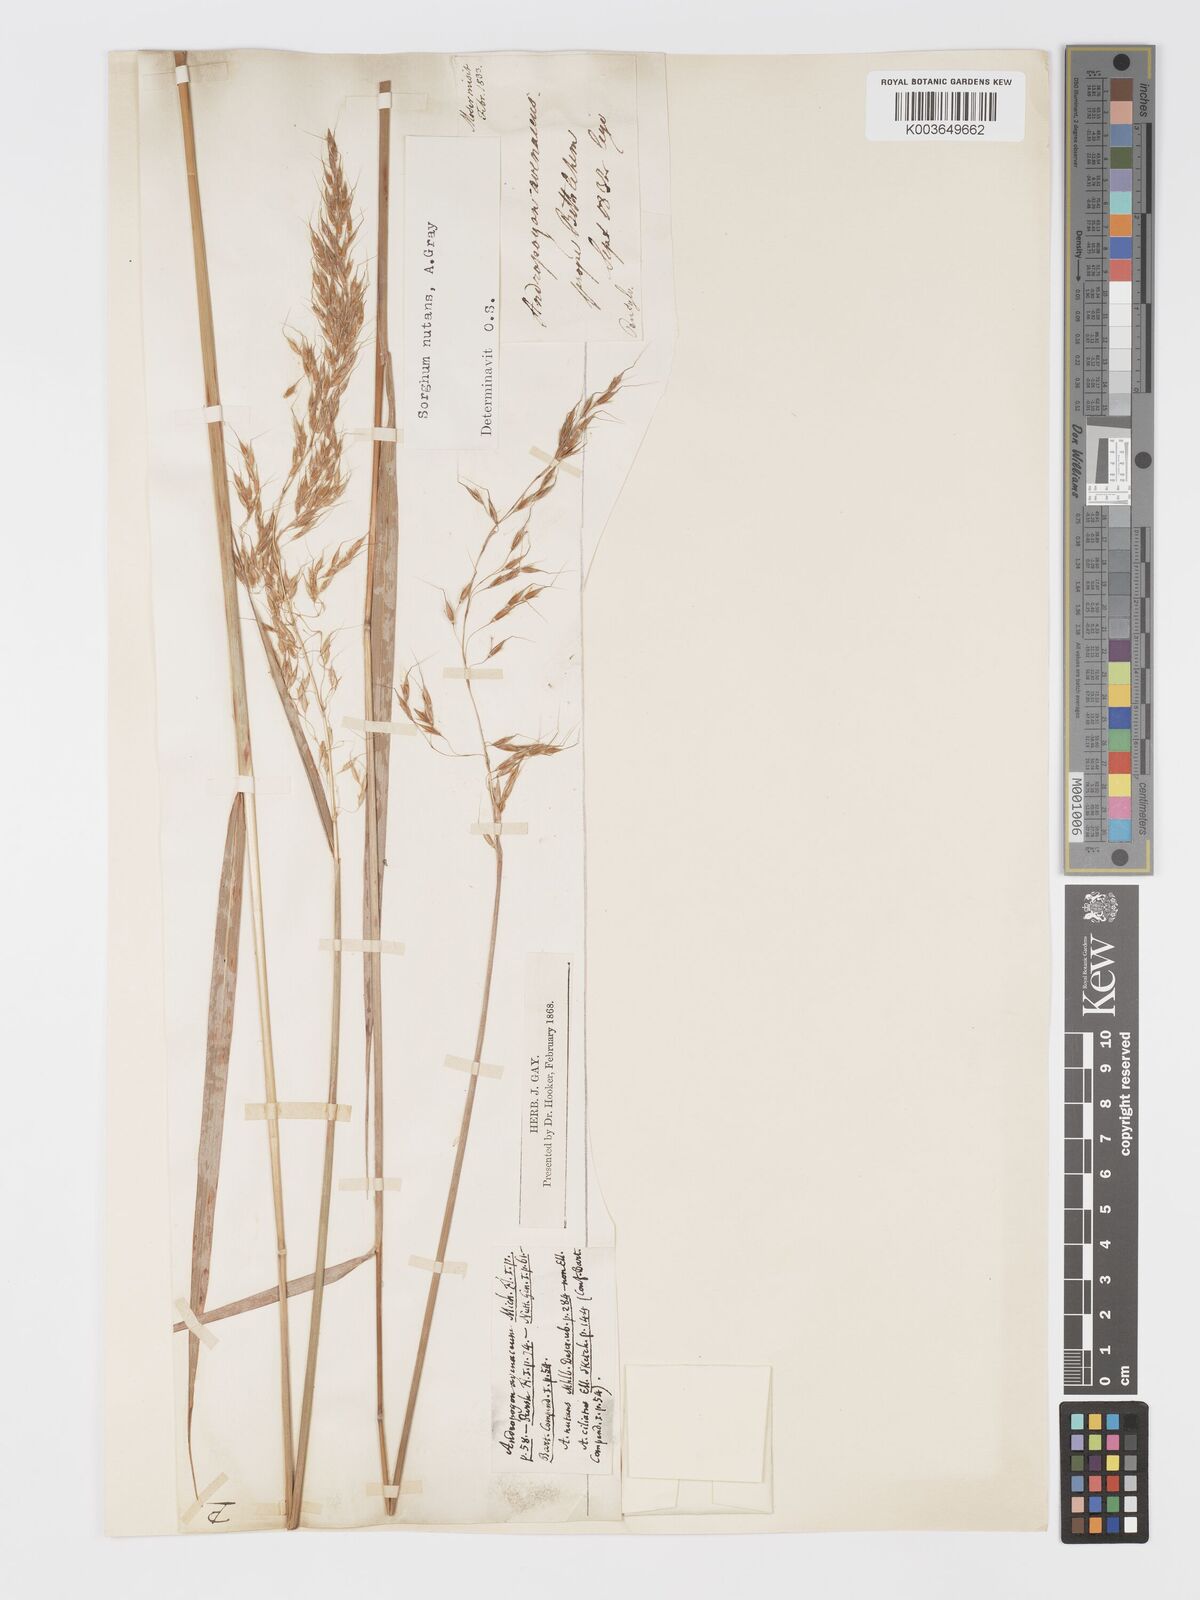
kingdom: Plantae
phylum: Tracheophyta
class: Liliopsida
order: Poales
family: Poaceae
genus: Sorghastrum
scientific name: Sorghastrum nutans
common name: Indian grass
